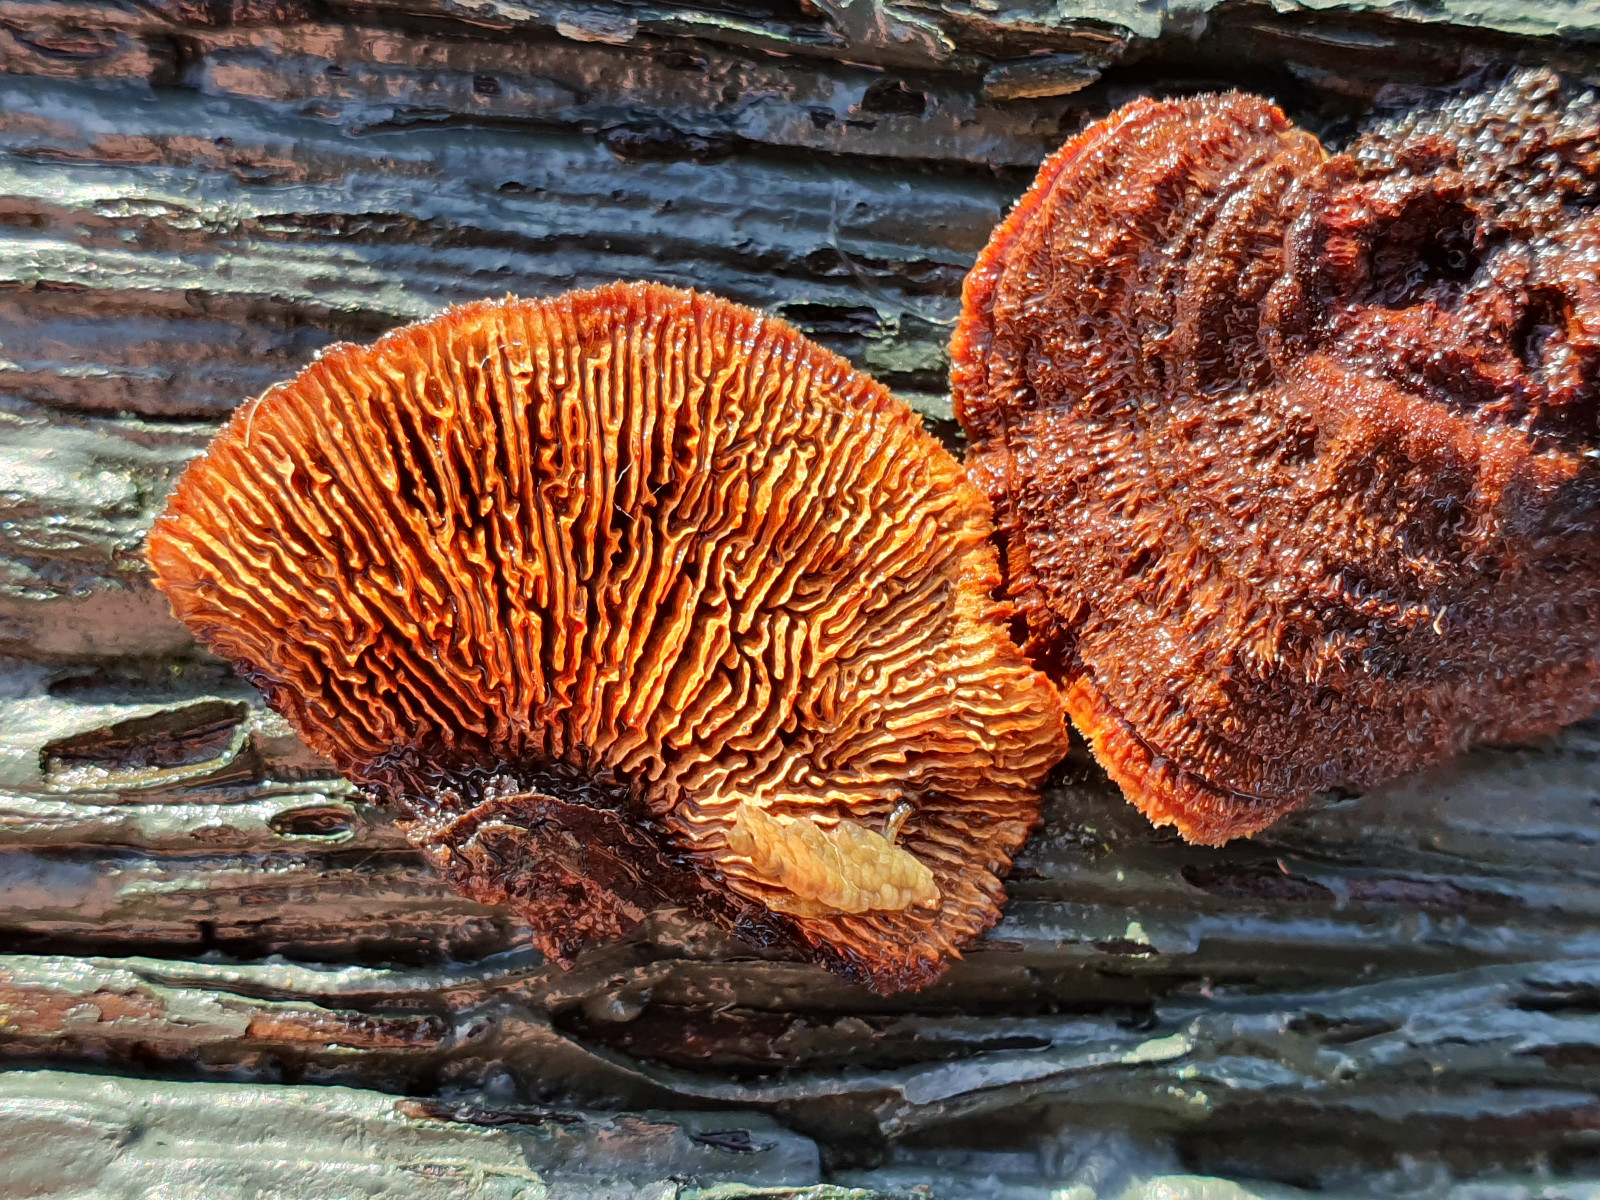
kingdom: Fungi
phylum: Basidiomycota
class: Agaricomycetes
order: Gloeophyllales
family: Gloeophyllaceae
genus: Gloeophyllum
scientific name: Gloeophyllum sepiarium
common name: fyrre-korkhat
